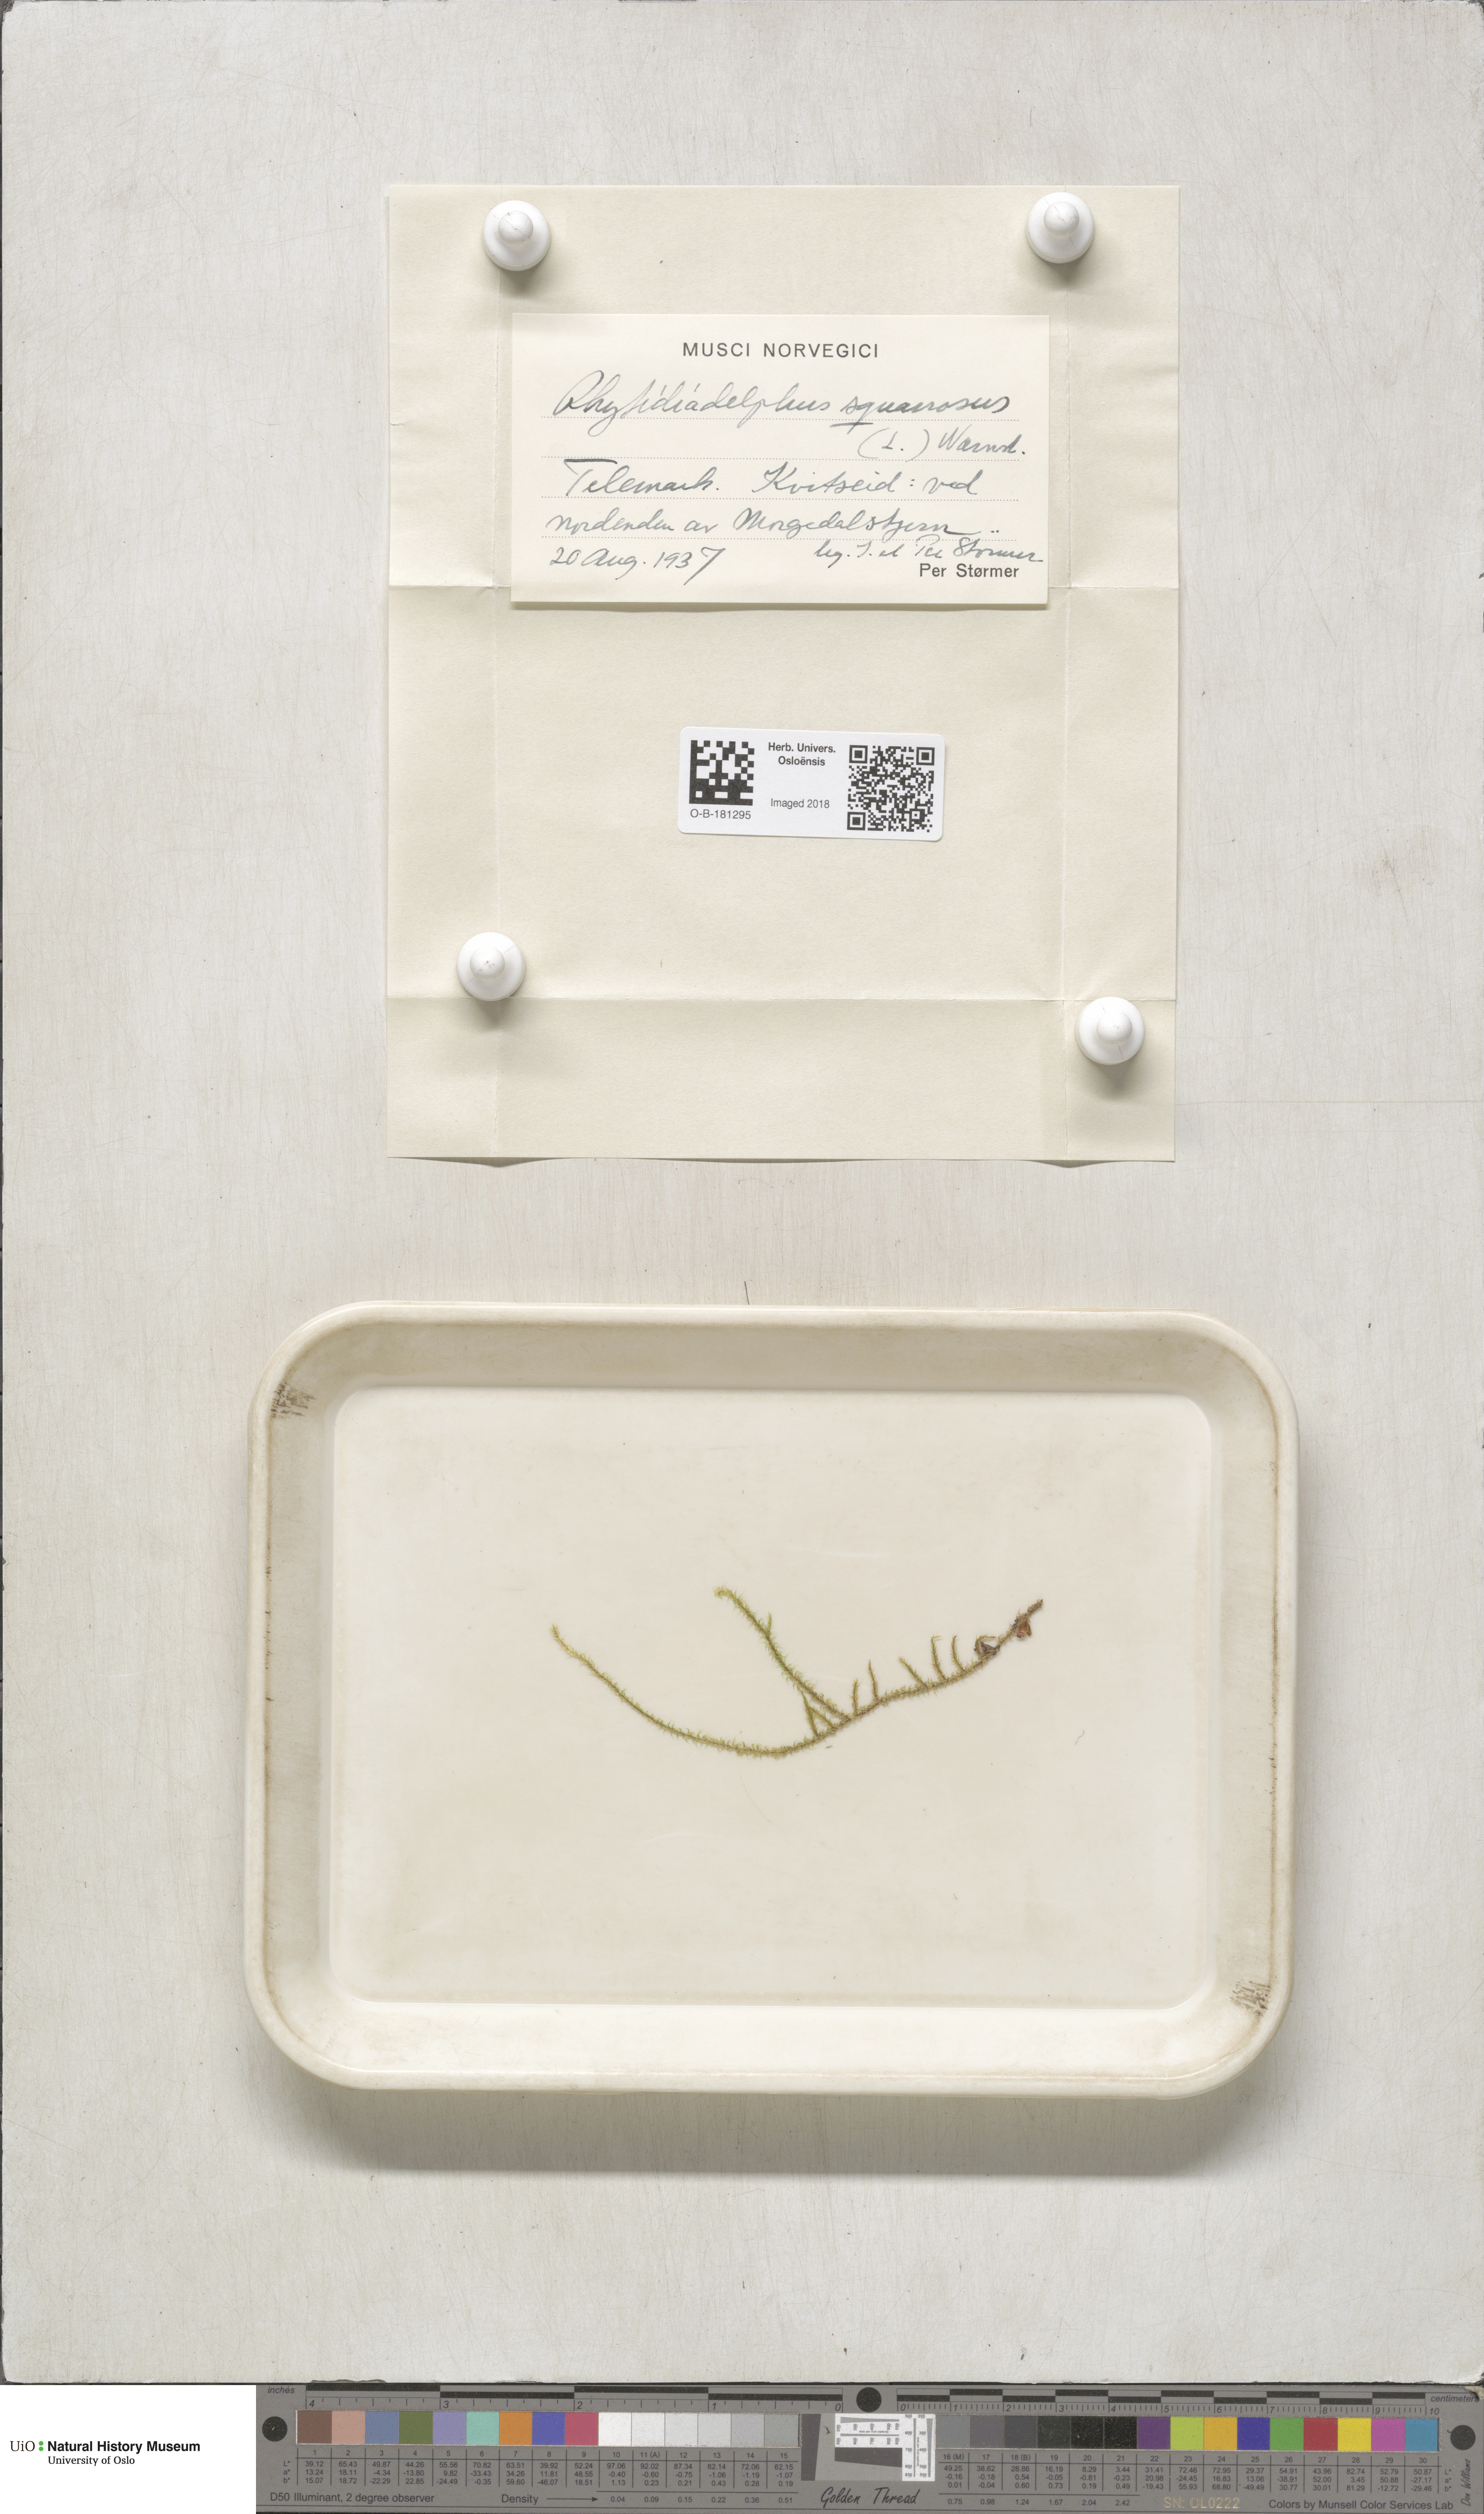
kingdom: Plantae
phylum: Bryophyta
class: Bryopsida
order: Hypnales
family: Hylocomiaceae
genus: Rhytidiadelphus
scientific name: Rhytidiadelphus squarrosus
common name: Springy turf-moss
